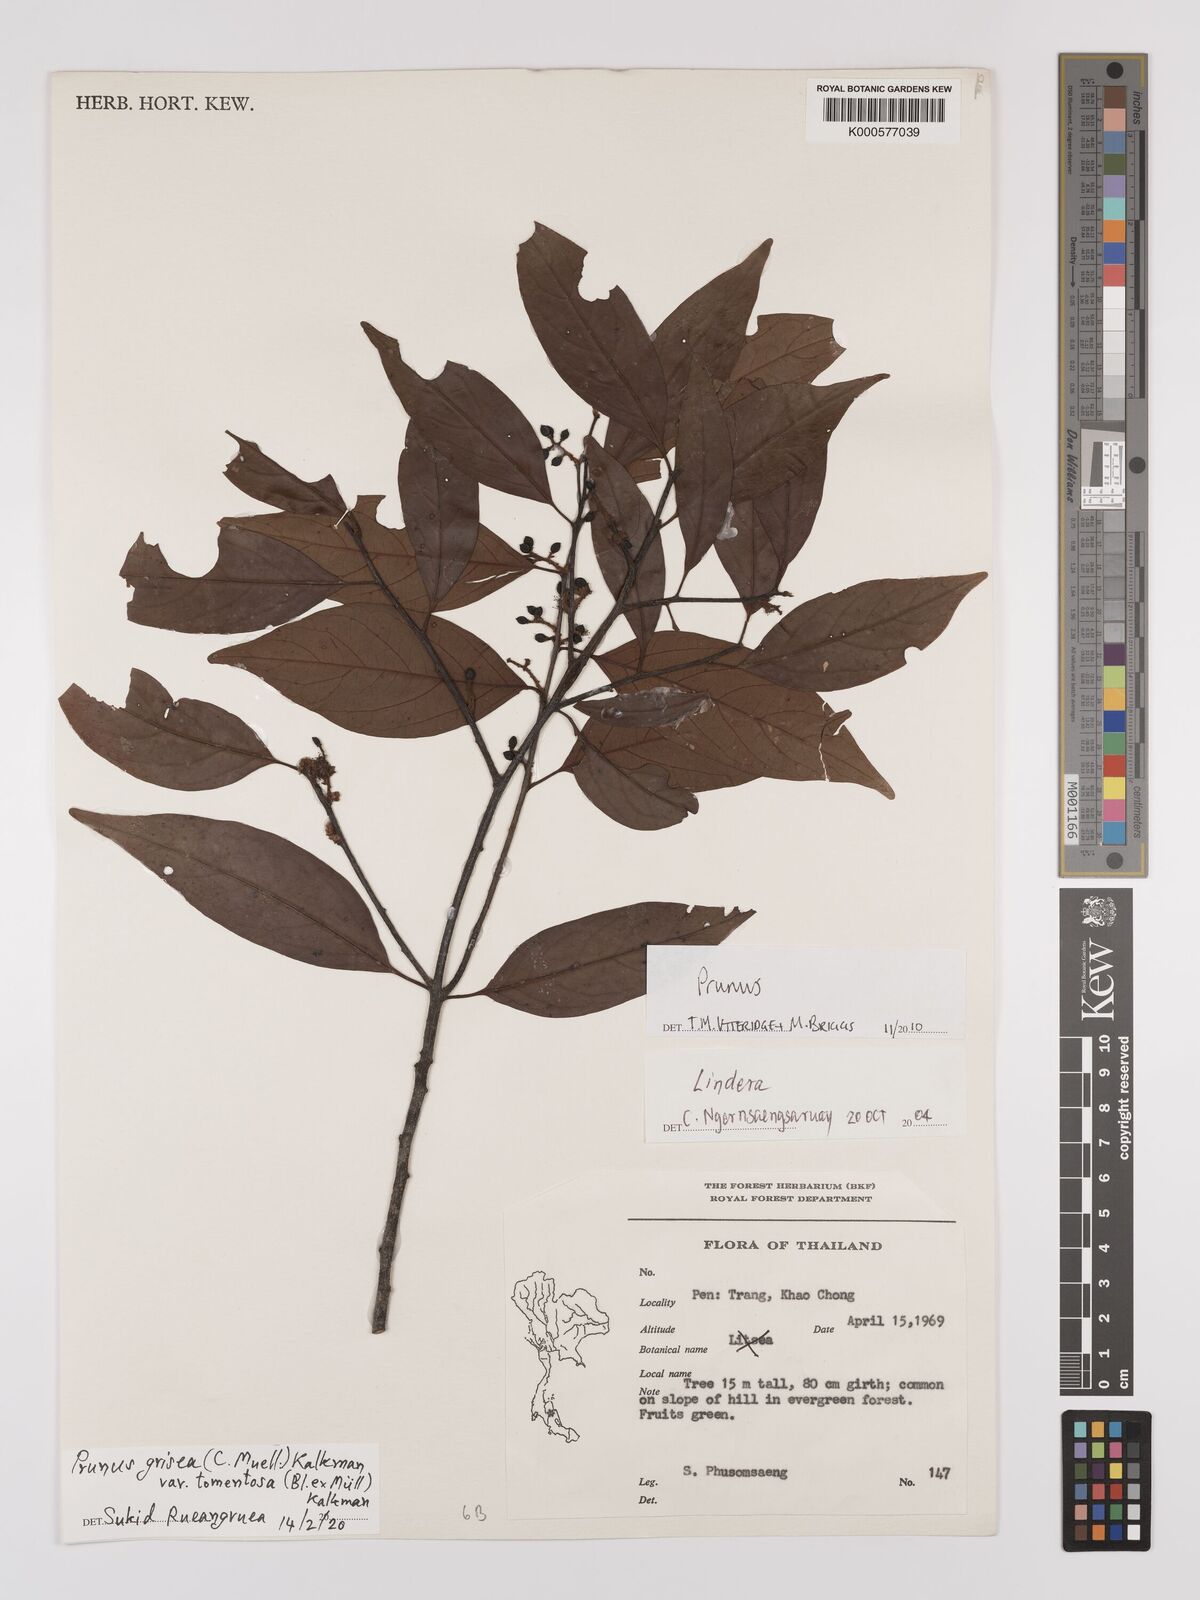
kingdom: Plantae
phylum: Tracheophyta
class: Magnoliopsida
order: Rosales
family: Rosaceae
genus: Prunus
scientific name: Prunus
